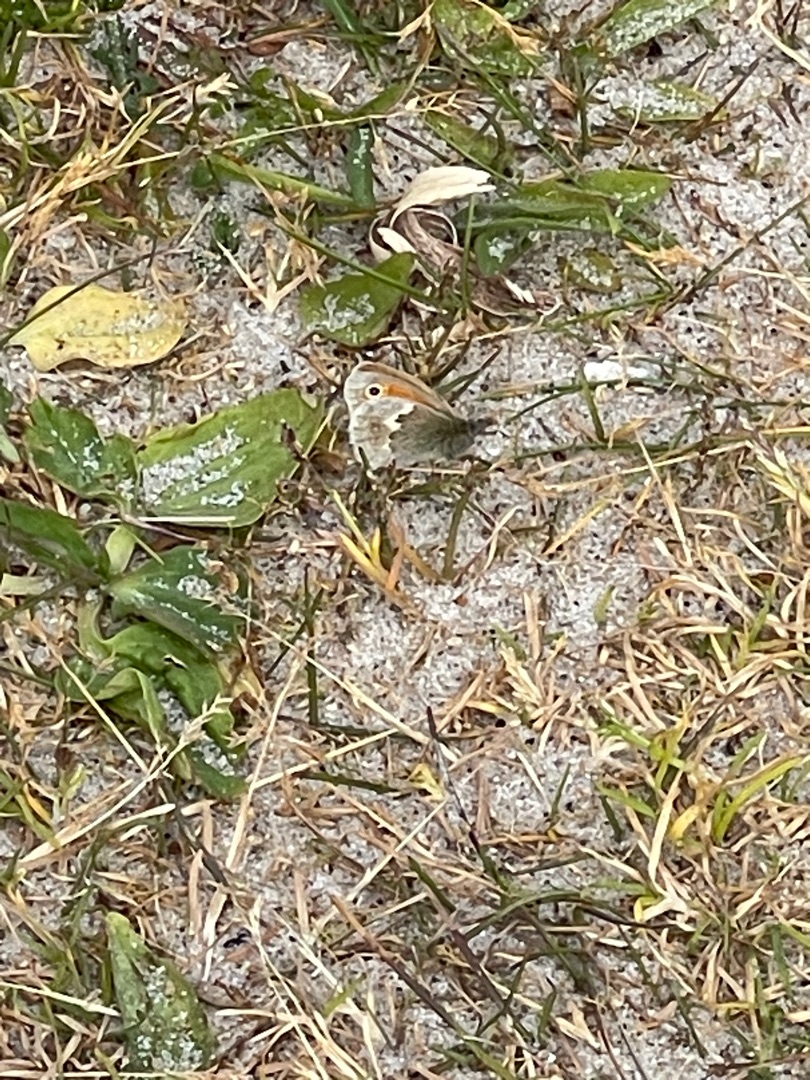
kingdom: Animalia
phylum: Arthropoda
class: Insecta
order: Lepidoptera
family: Nymphalidae
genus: Coenonympha
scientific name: Coenonympha pamphilus
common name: Okkergul randøje
